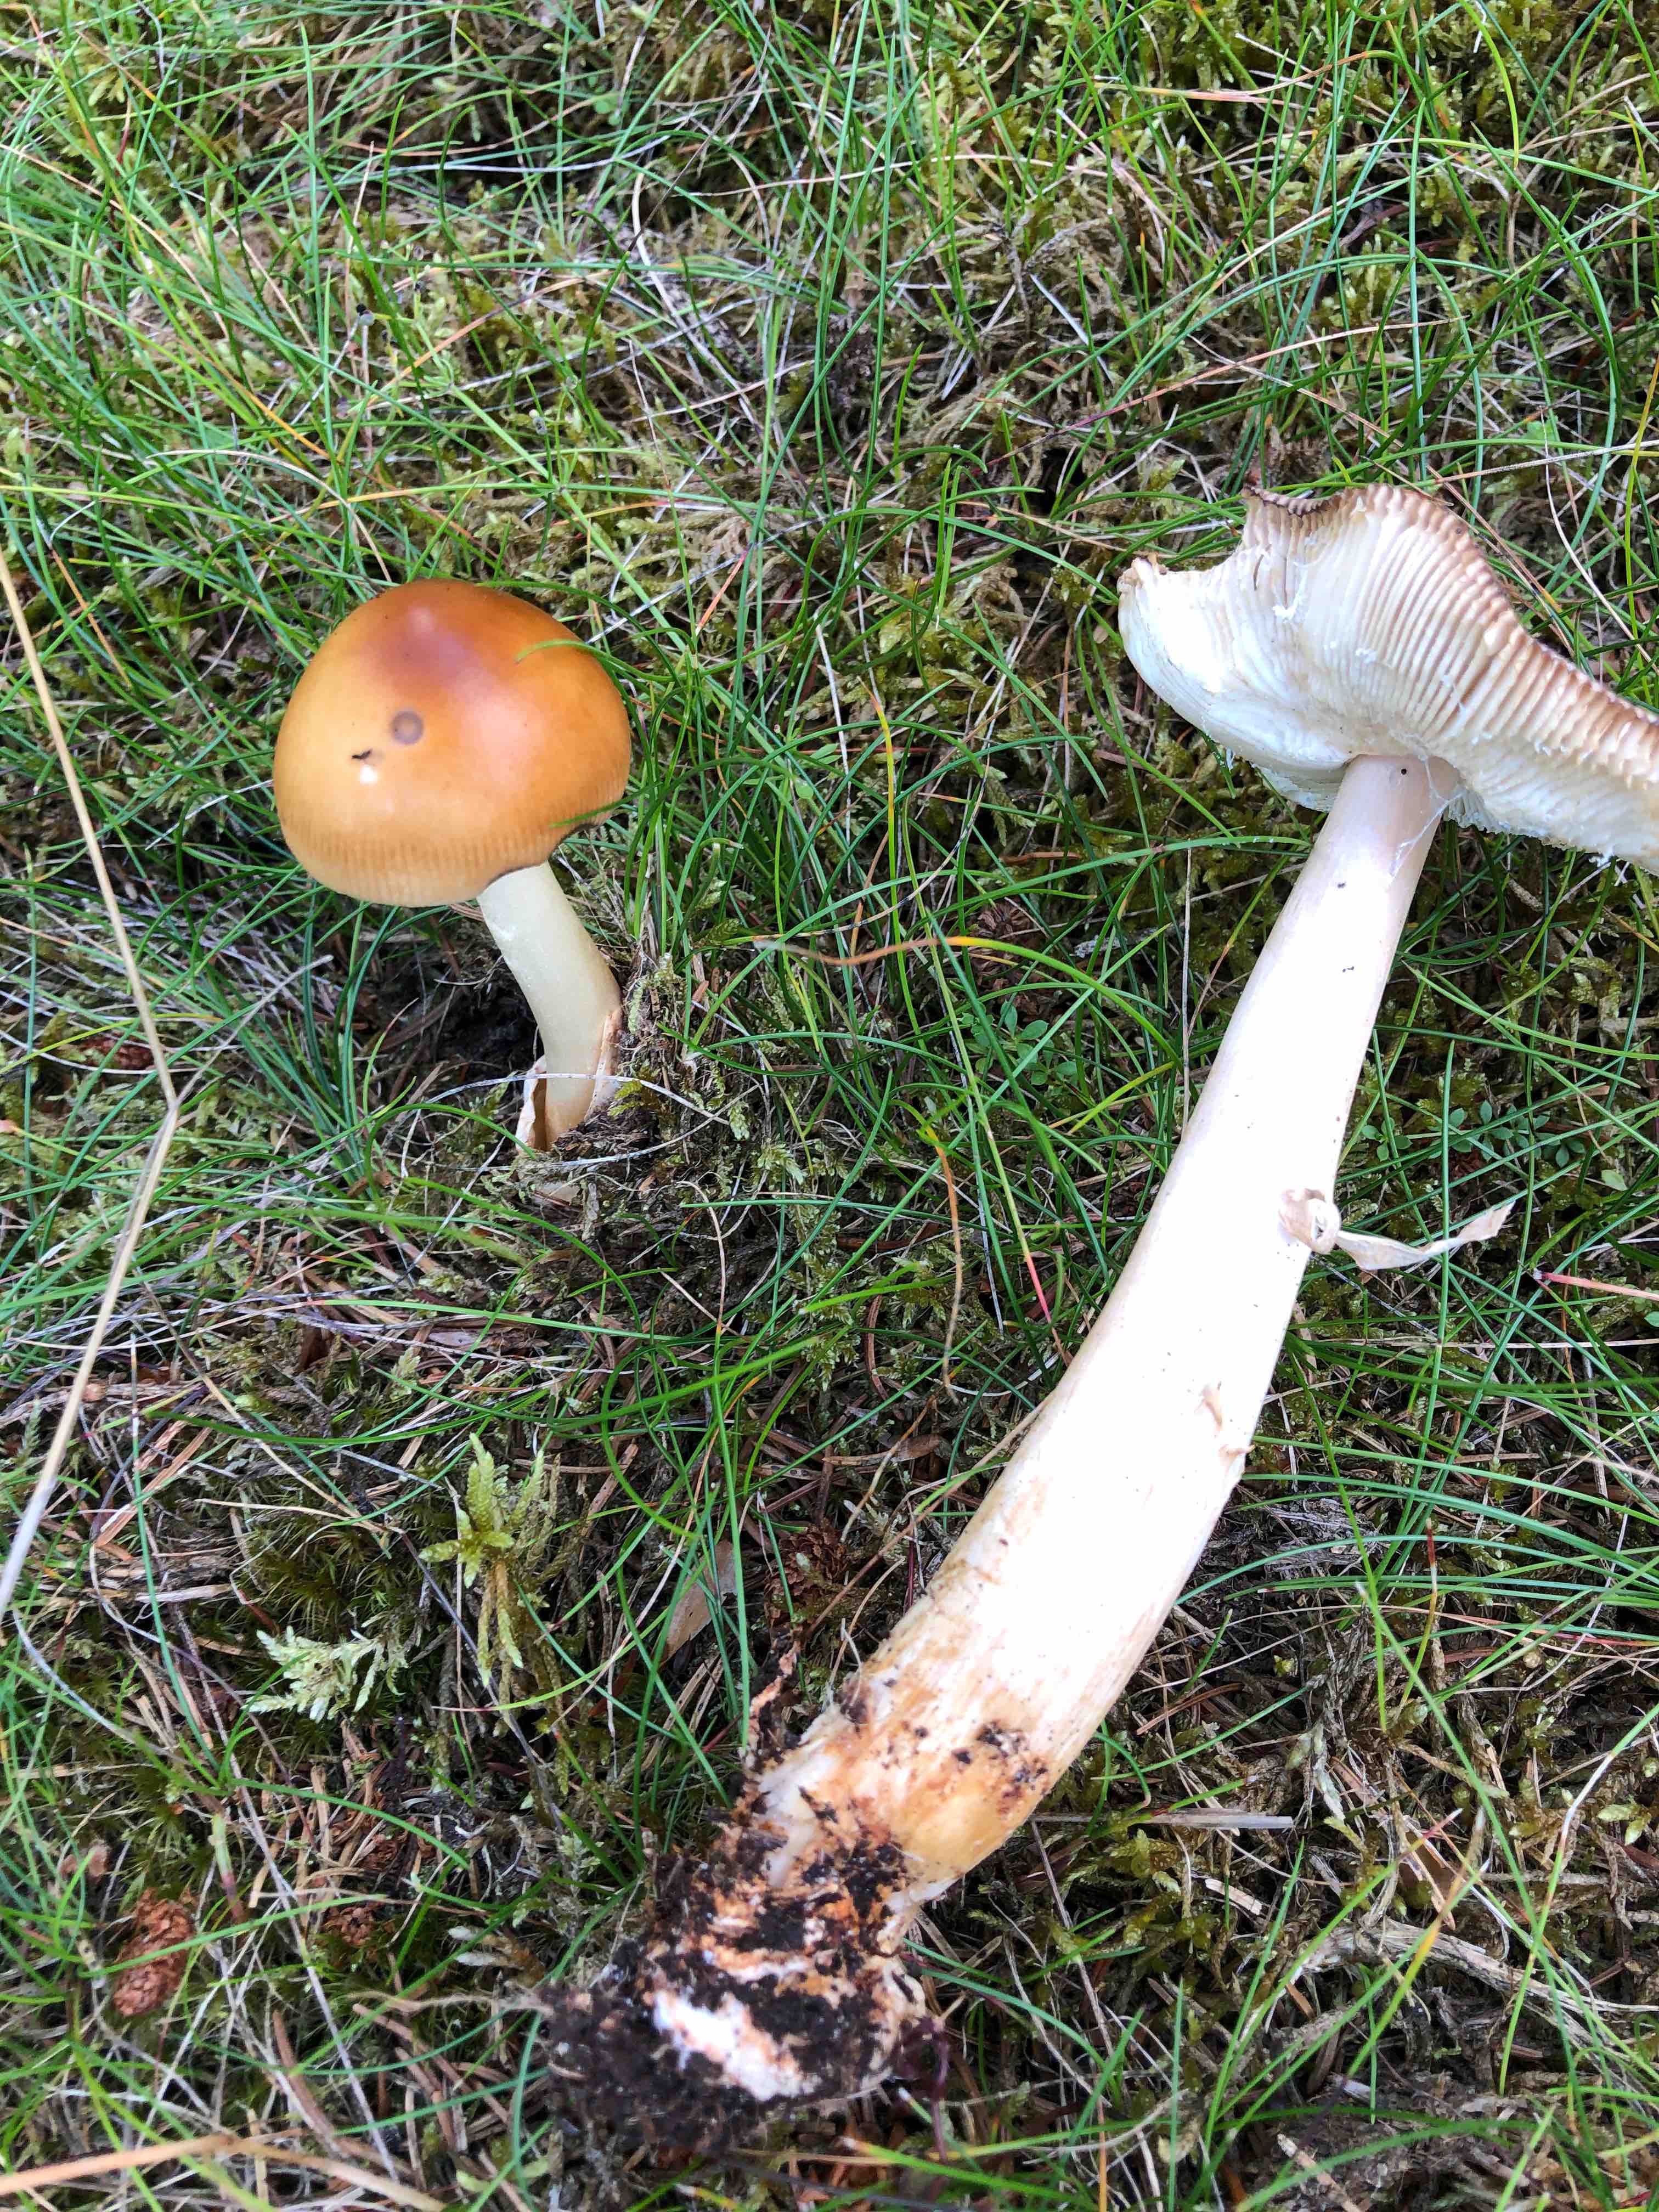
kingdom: Fungi
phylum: Basidiomycota
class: Agaricomycetes
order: Agaricales
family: Amanitaceae
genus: Amanita
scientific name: Amanita fulva
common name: brun kam-fluesvamp
